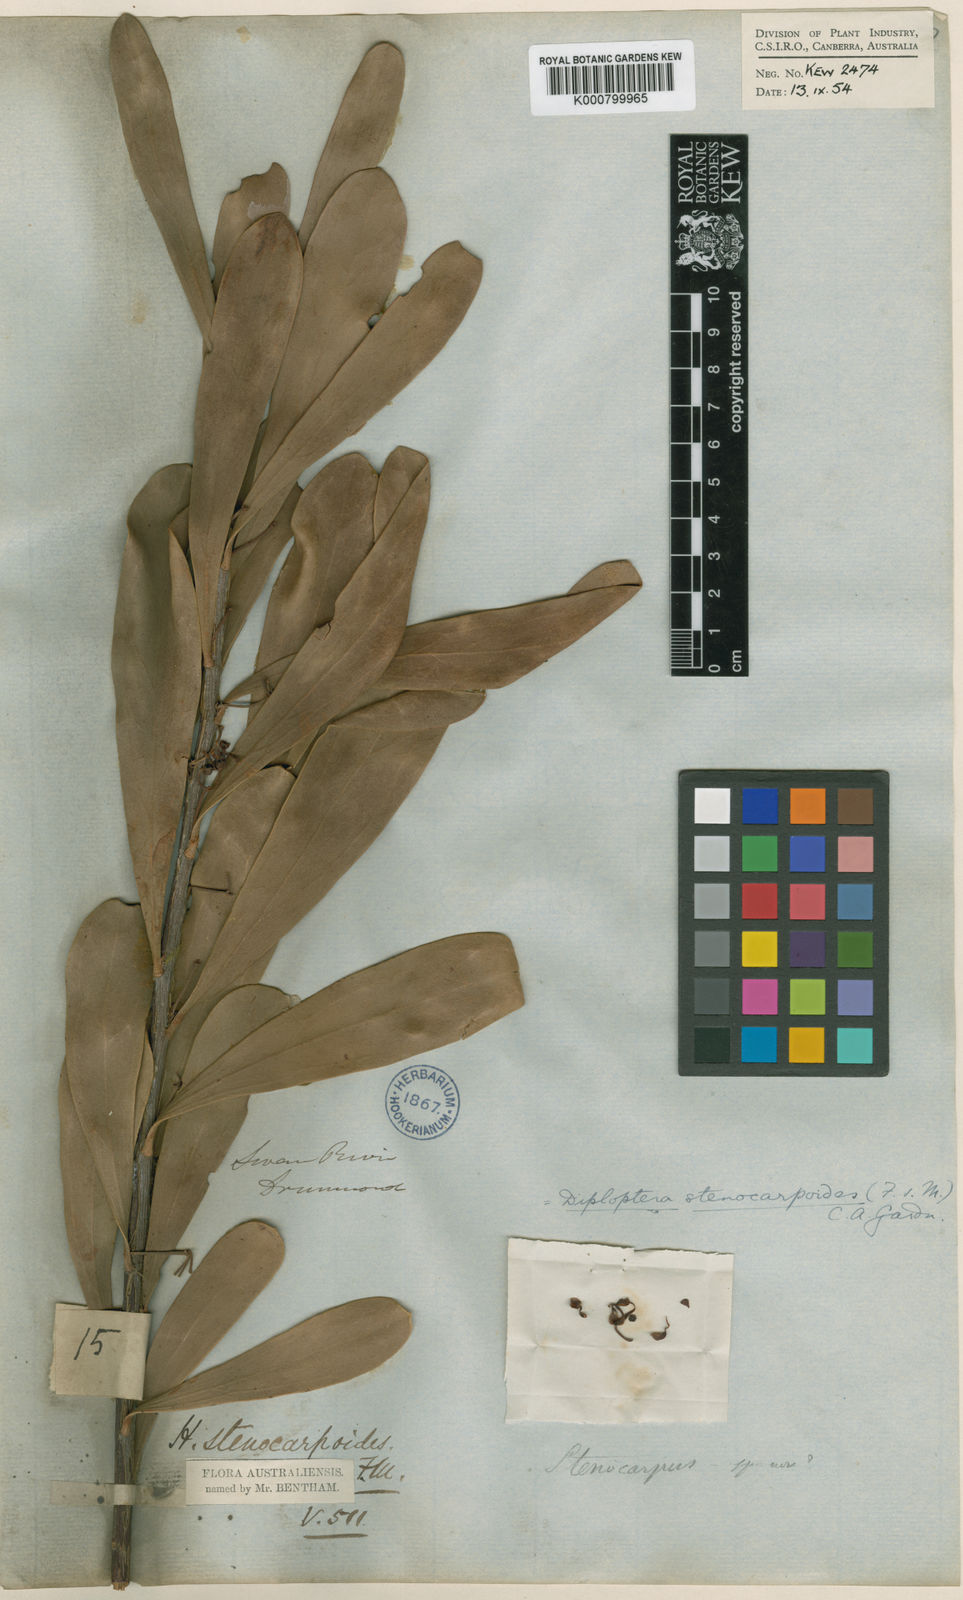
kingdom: Plantae
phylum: Tracheophyta
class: Magnoliopsida
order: Proteales
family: Proteaceae
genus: Strangea
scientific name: Strangea stenocarpoides
